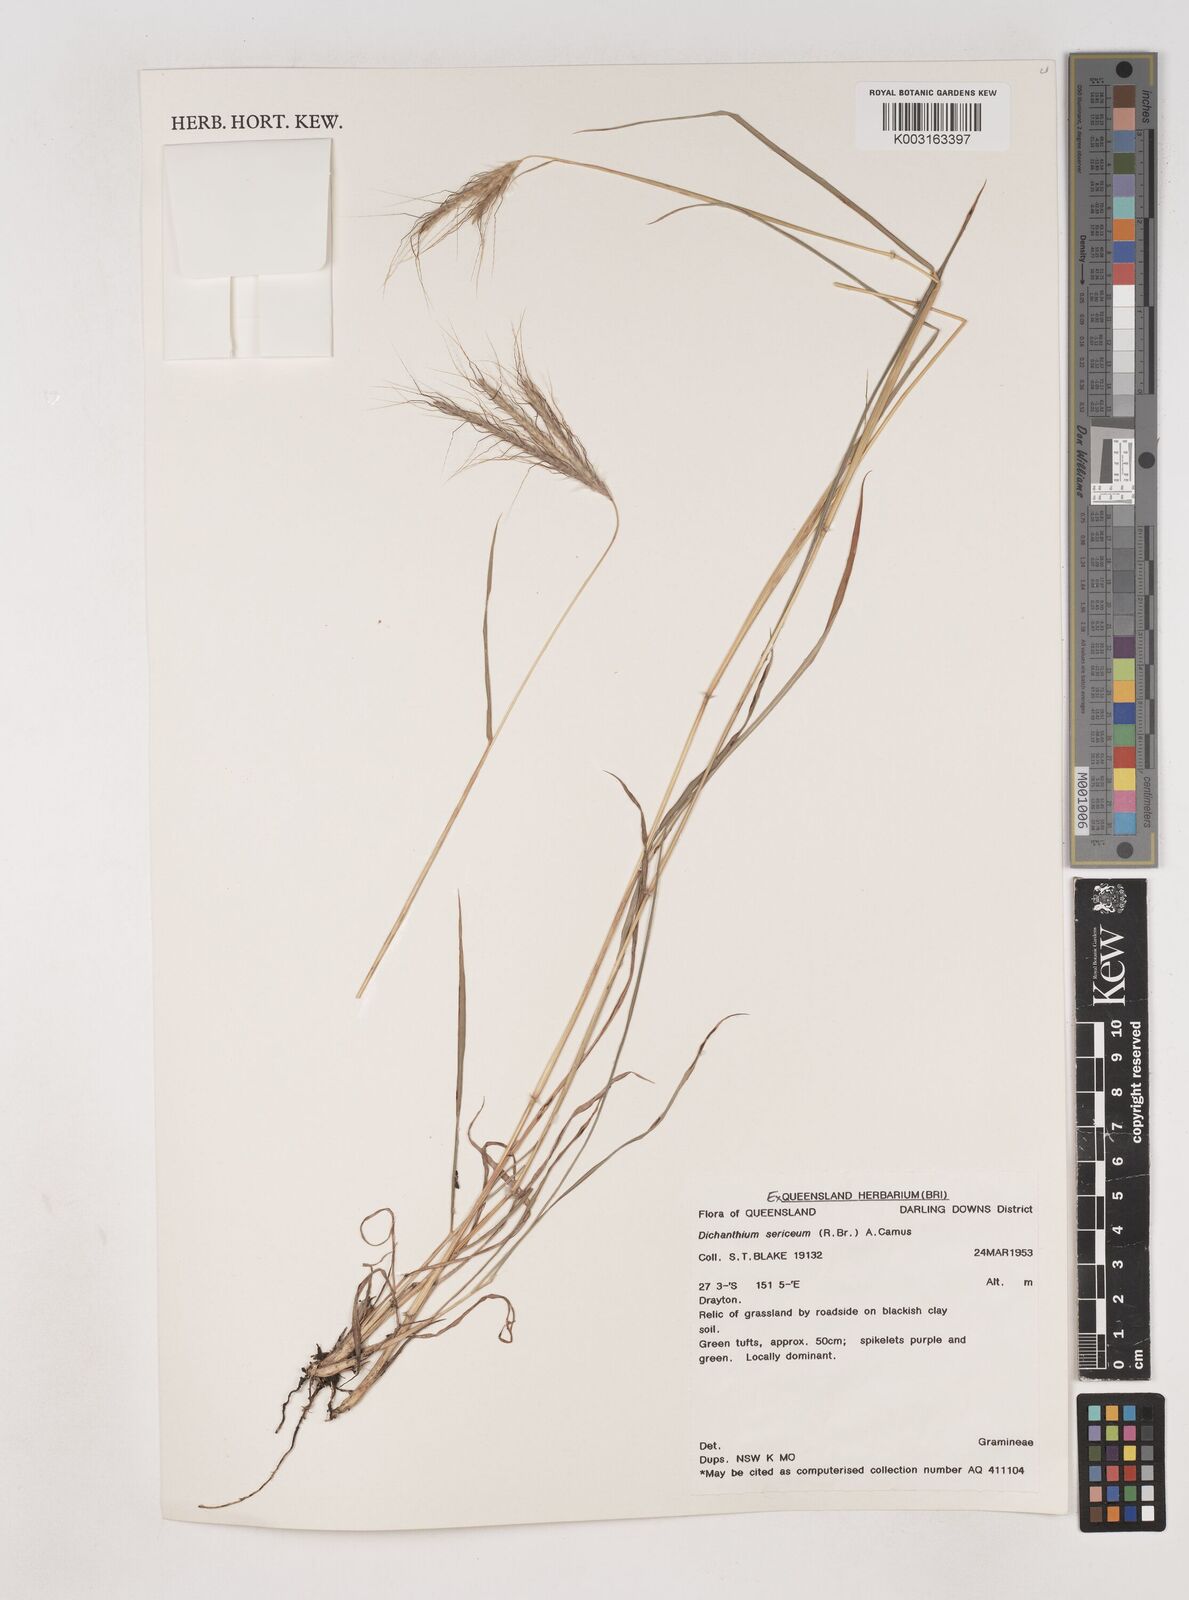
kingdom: Plantae
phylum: Tracheophyta
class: Liliopsida
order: Poales
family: Poaceae
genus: Dichanthium
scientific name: Dichanthium sericeum
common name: Silky bluestem
